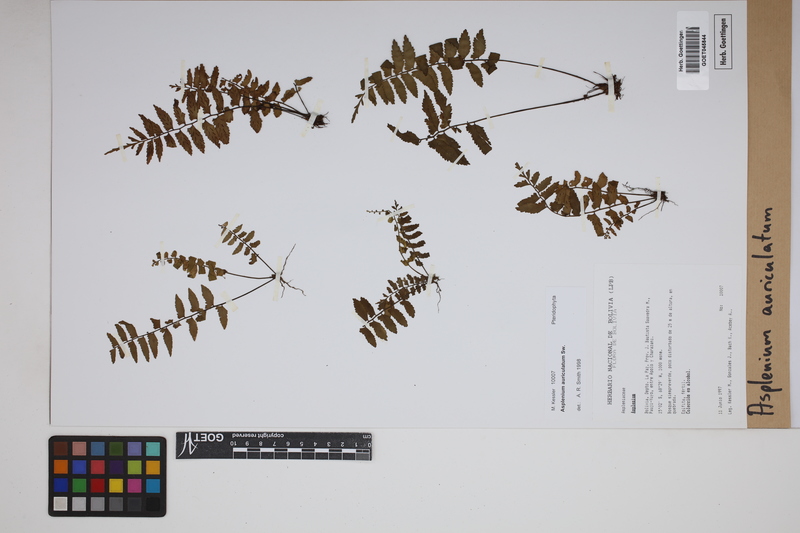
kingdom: Plantae
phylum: Tracheophyta
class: Polypodiopsida
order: Polypodiales
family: Aspleniaceae
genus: Asplenium
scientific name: Asplenium auriculatum
